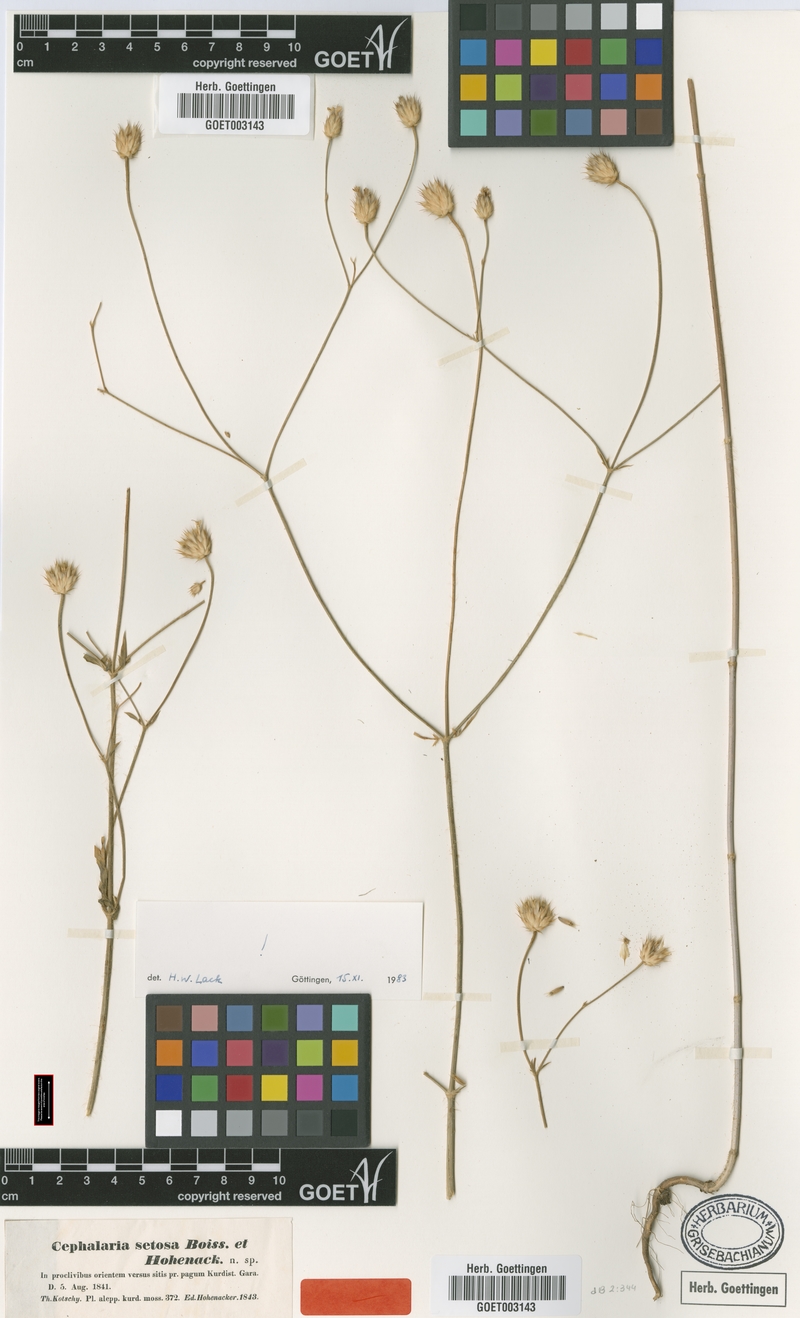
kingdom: Plantae
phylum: Tracheophyta
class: Magnoliopsida
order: Dipsacales
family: Caprifoliaceae
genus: Cephalaria
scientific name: Cephalaria setosa
